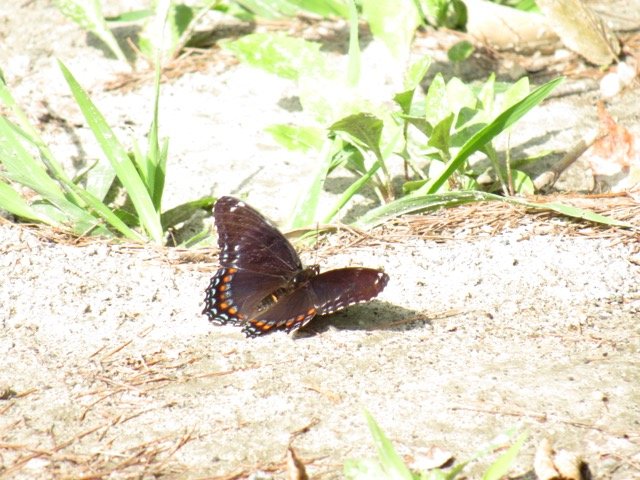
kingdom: Animalia
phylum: Arthropoda
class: Insecta
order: Lepidoptera
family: Nymphalidae
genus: Limenitis
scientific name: Limenitis
